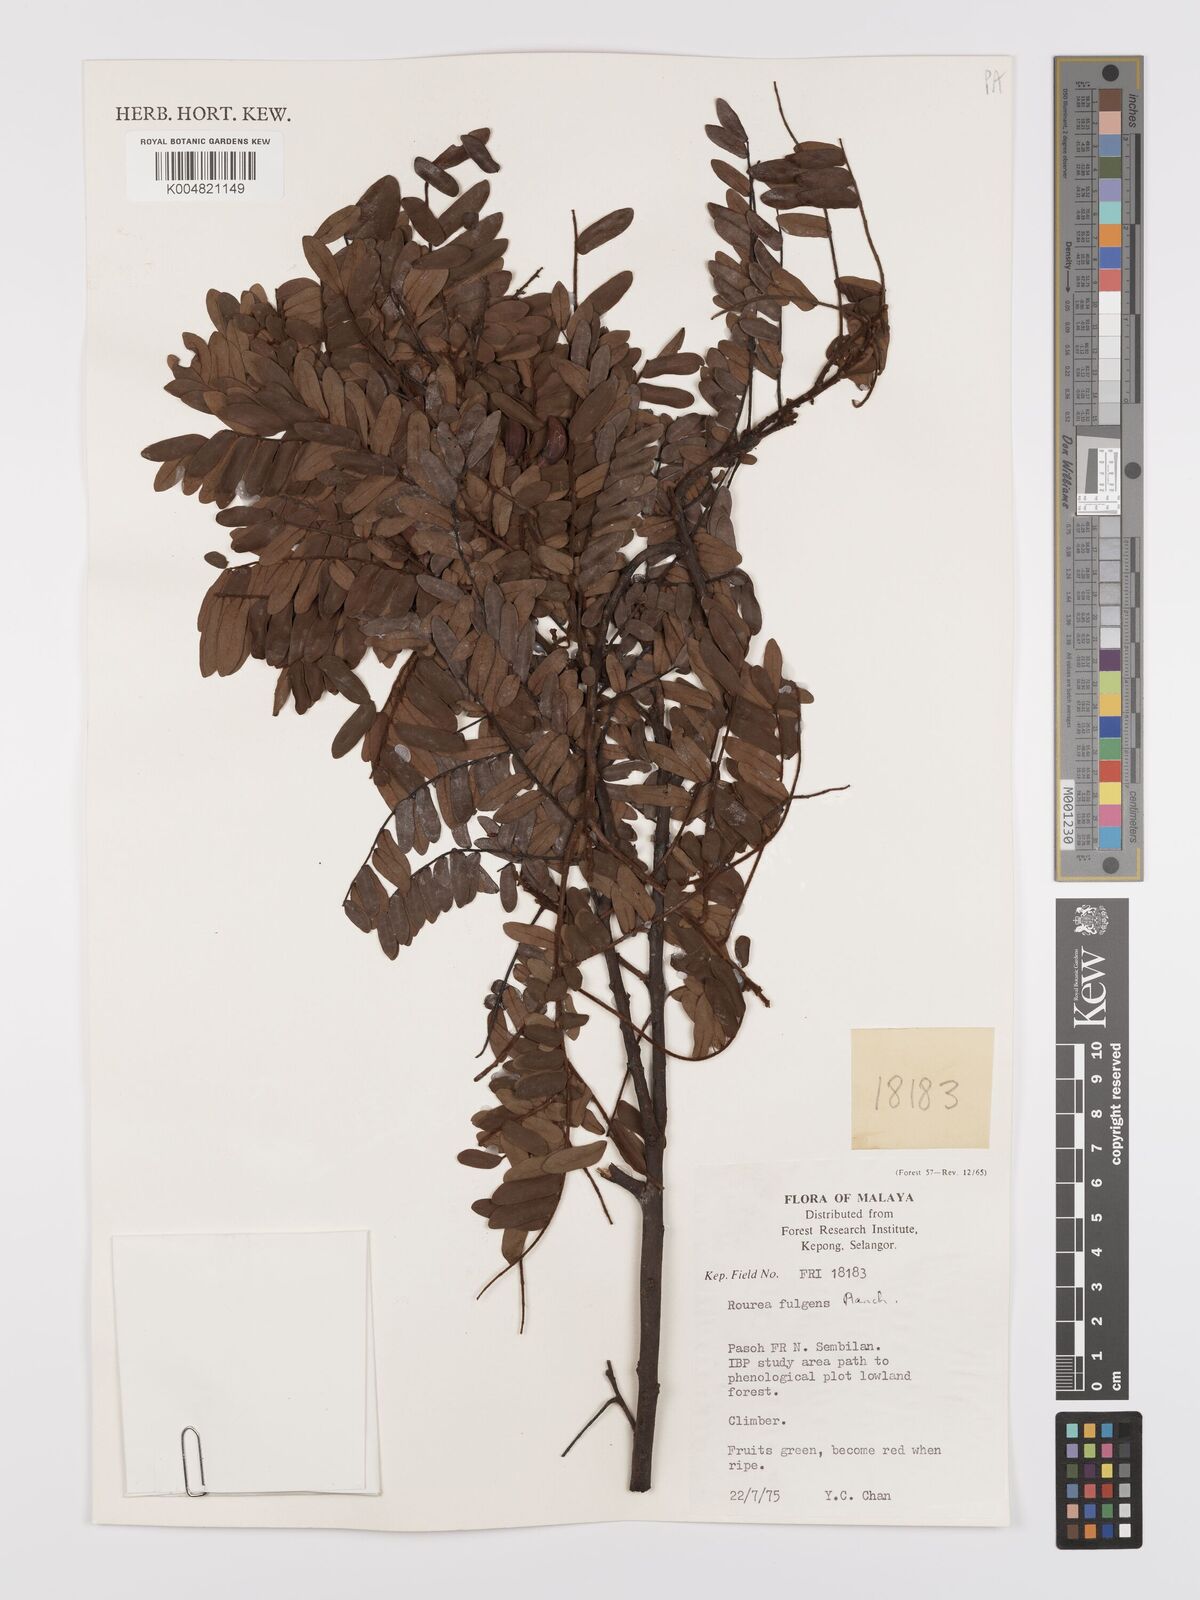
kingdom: Plantae
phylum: Tracheophyta
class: Magnoliopsida
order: Oxalidales
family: Connaraceae
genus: Rourea
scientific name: Rourea fulgens
